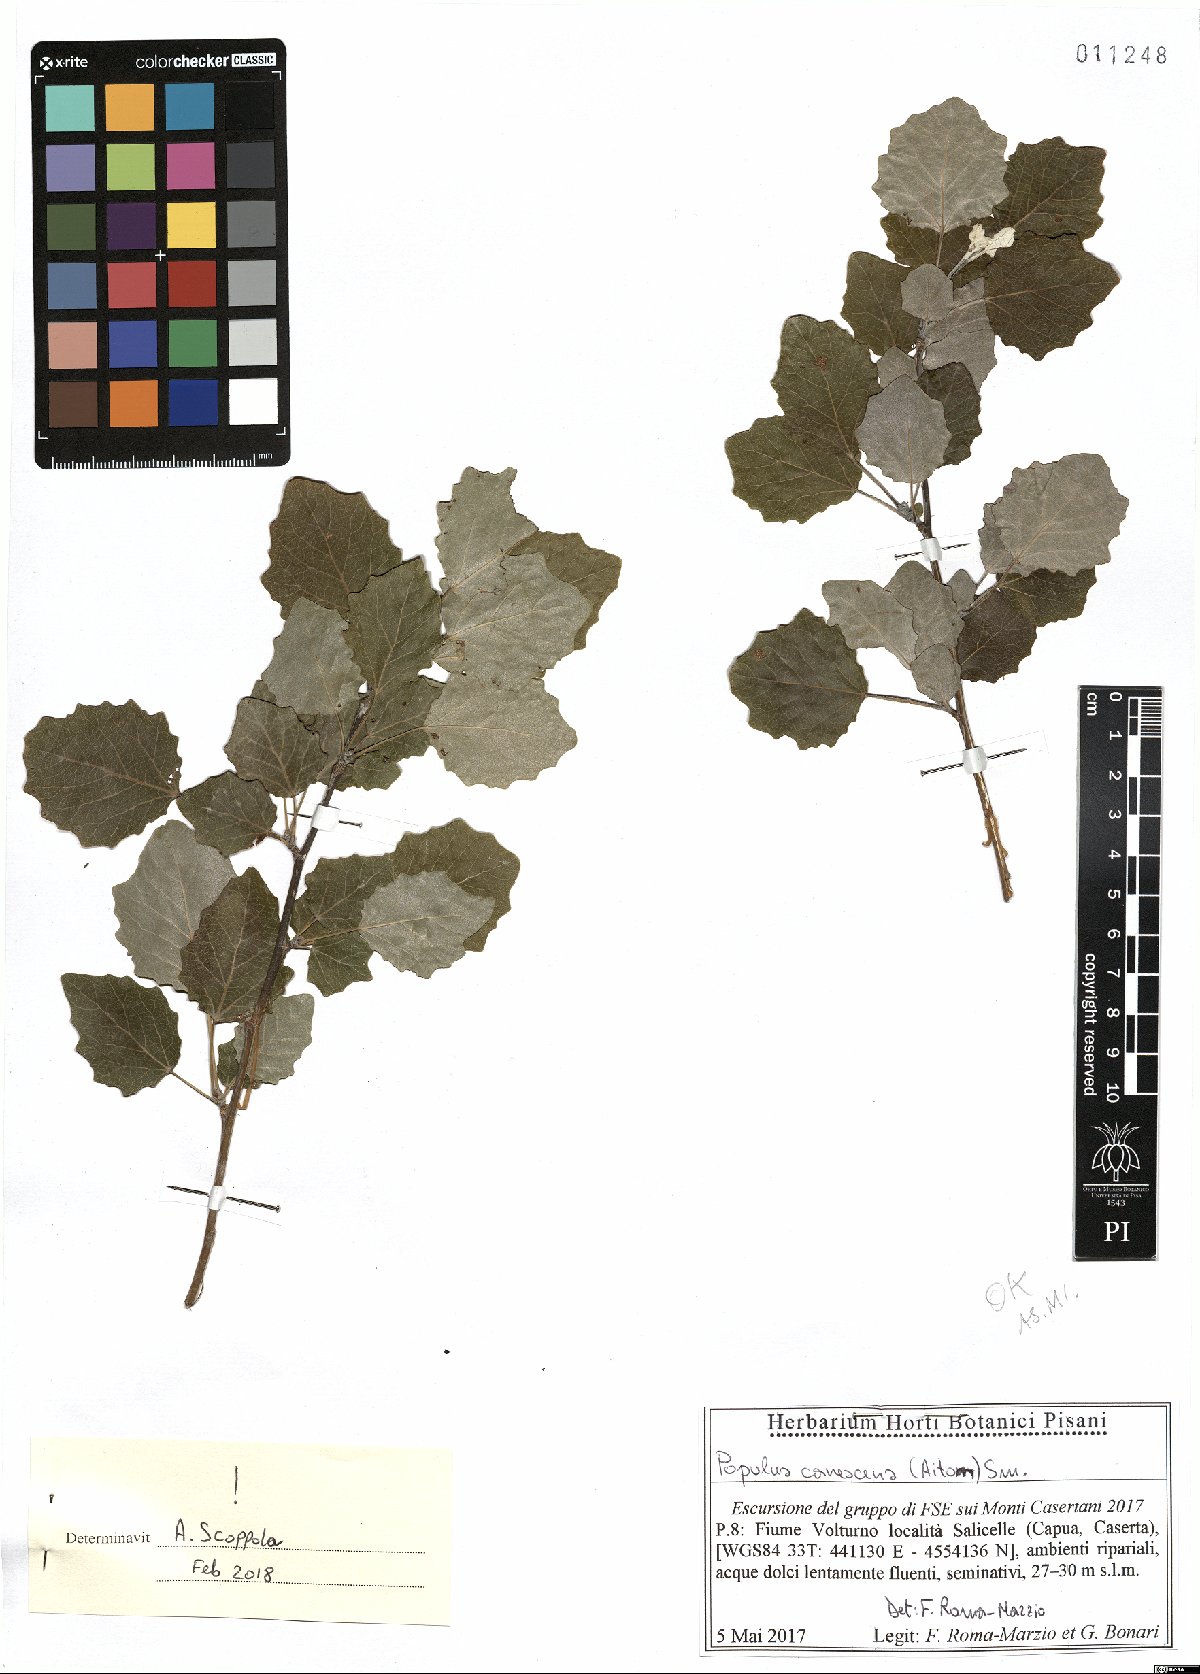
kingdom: Plantae
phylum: Tracheophyta
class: Magnoliopsida
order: Malpighiales
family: Salicaceae
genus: Populus
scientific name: Populus canescens
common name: Gray poplar
